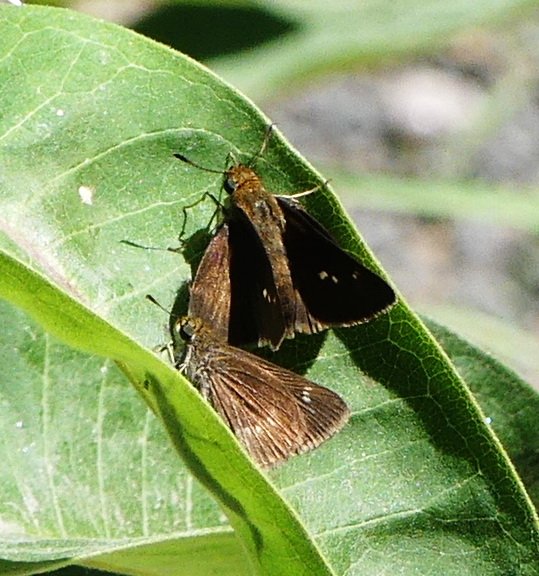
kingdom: Animalia
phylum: Arthropoda
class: Insecta
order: Lepidoptera
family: Hesperiidae
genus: Euphyes
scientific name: Euphyes vestris
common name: Dun Skipper
